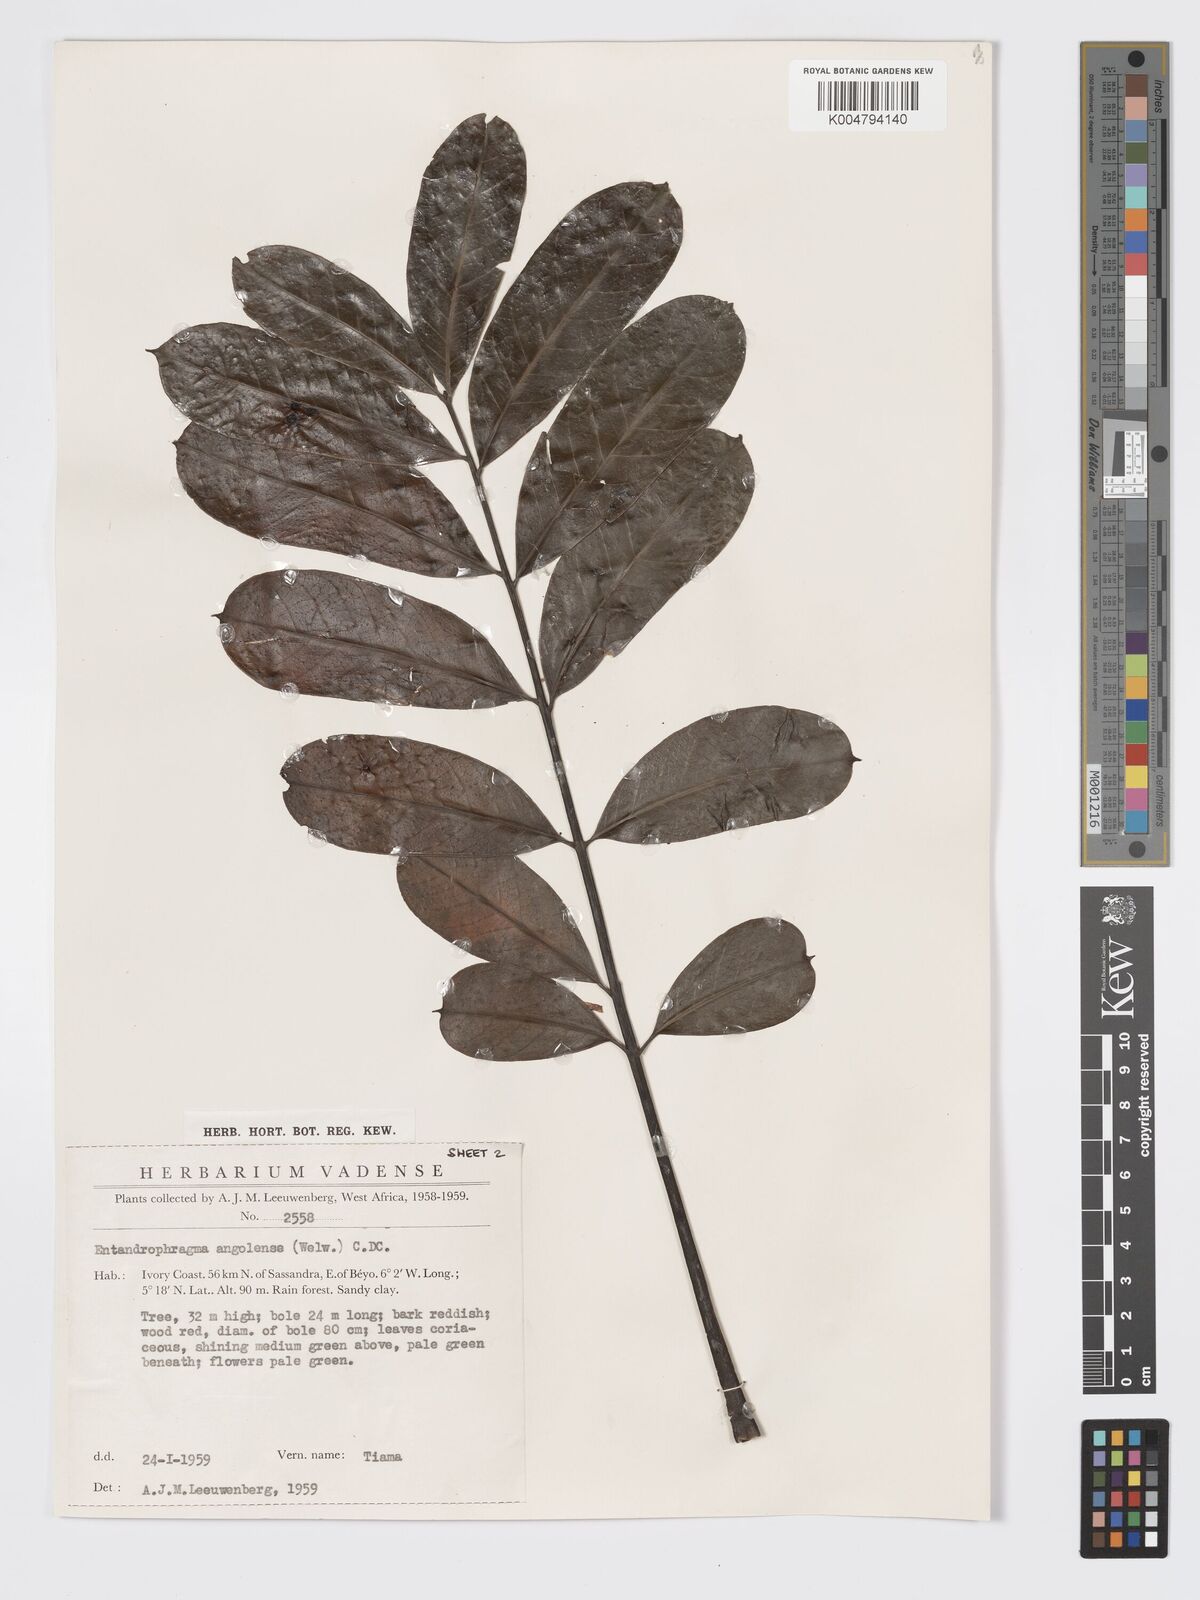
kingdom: Plantae
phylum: Tracheophyta
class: Magnoliopsida
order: Sapindales
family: Meliaceae
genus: Entandrophragma
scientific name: Entandrophragma angolense
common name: African mahogany
